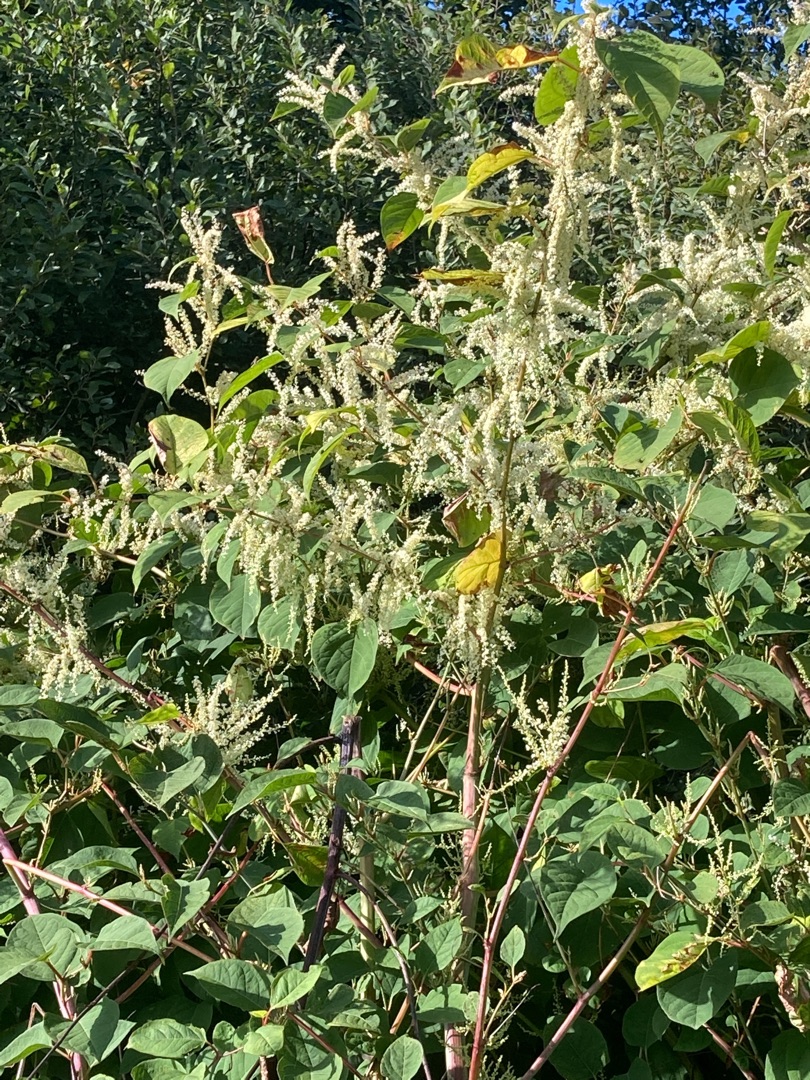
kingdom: Plantae
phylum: Tracheophyta
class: Magnoliopsida
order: Caryophyllales
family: Polygonaceae
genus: Reynoutria
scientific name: Reynoutria japonica
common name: Japan-pileurt
